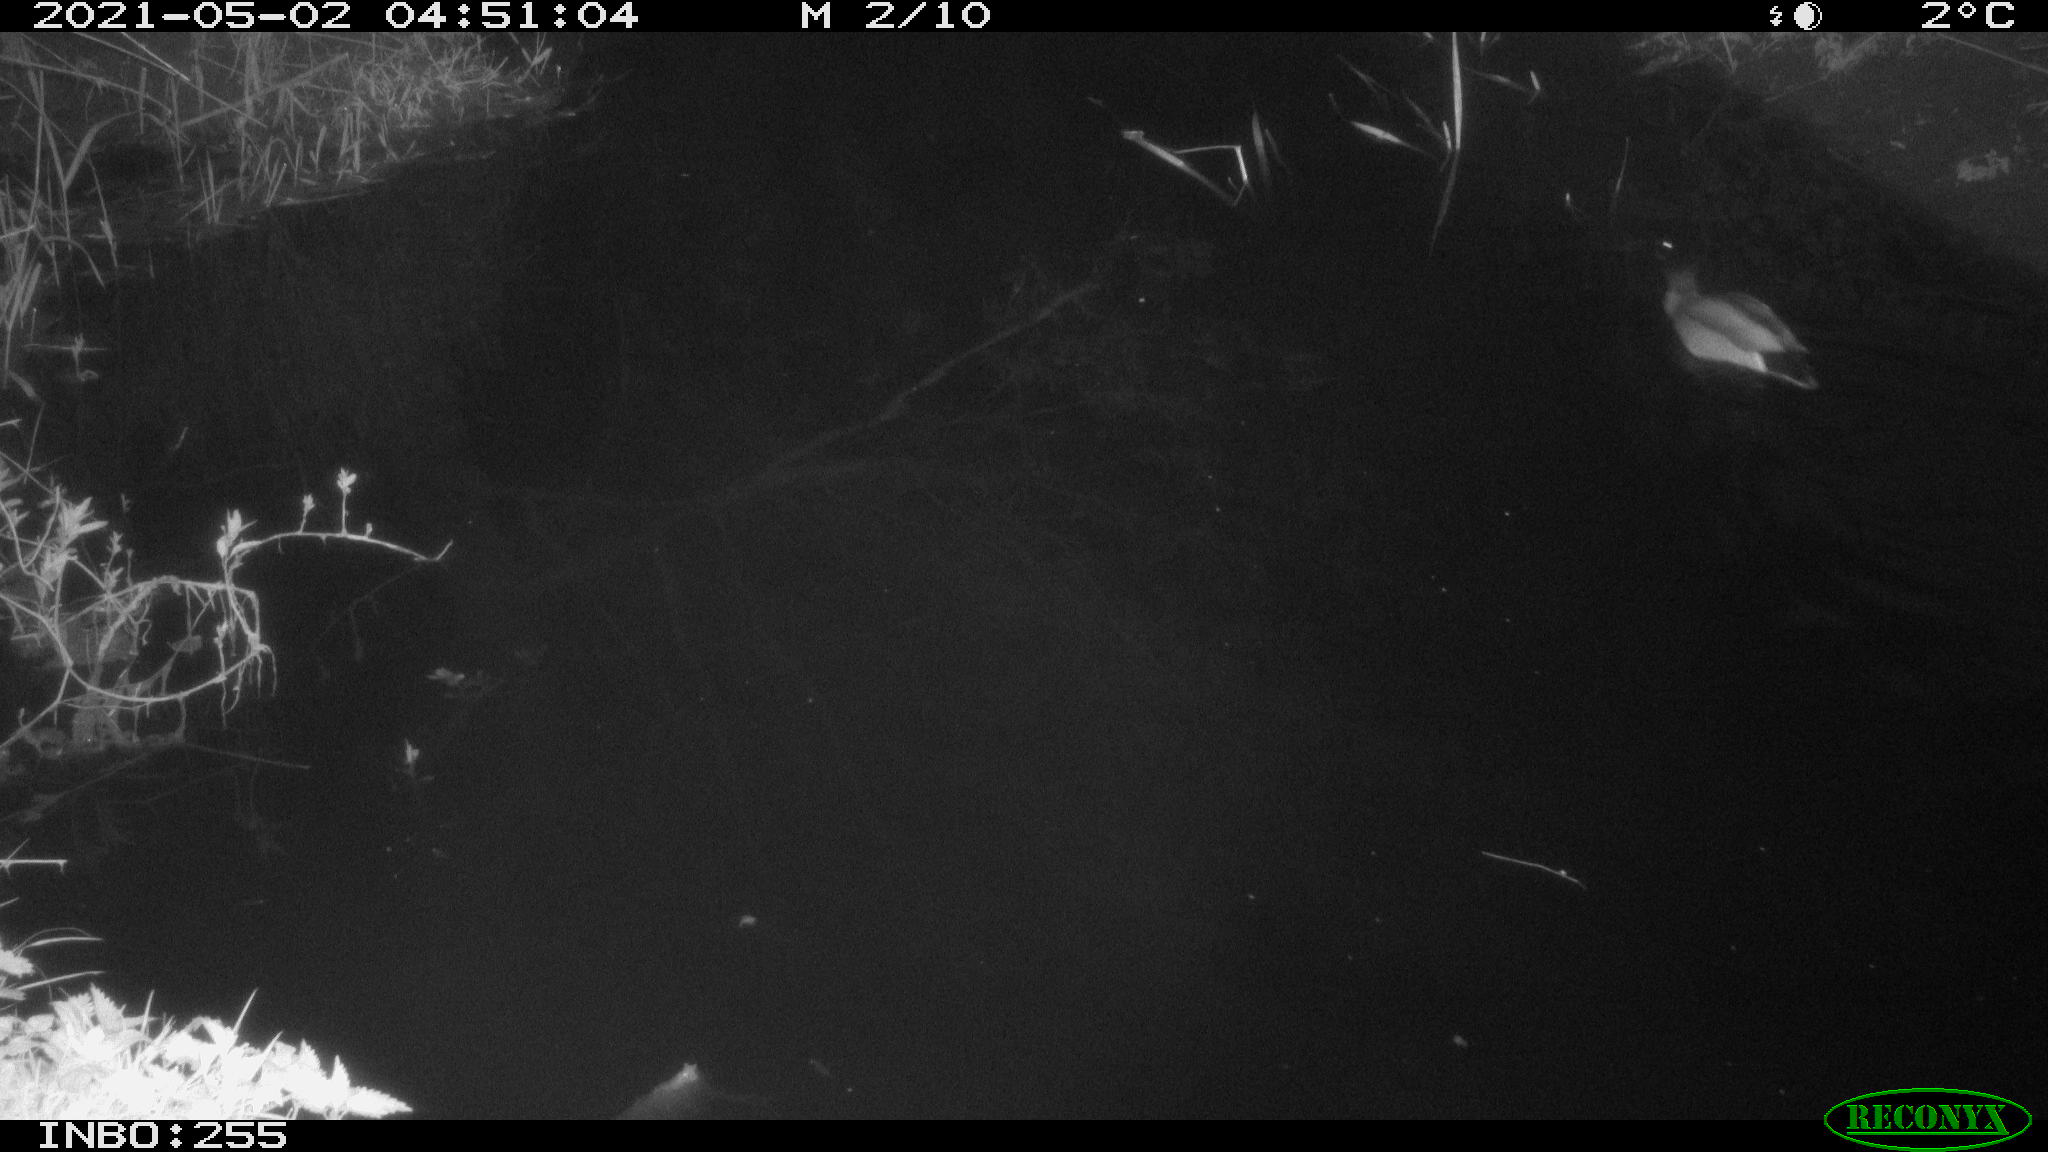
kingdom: Animalia
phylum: Chordata
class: Aves
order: Anseriformes
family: Anatidae
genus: Anas
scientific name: Anas platyrhynchos
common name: Mallard
